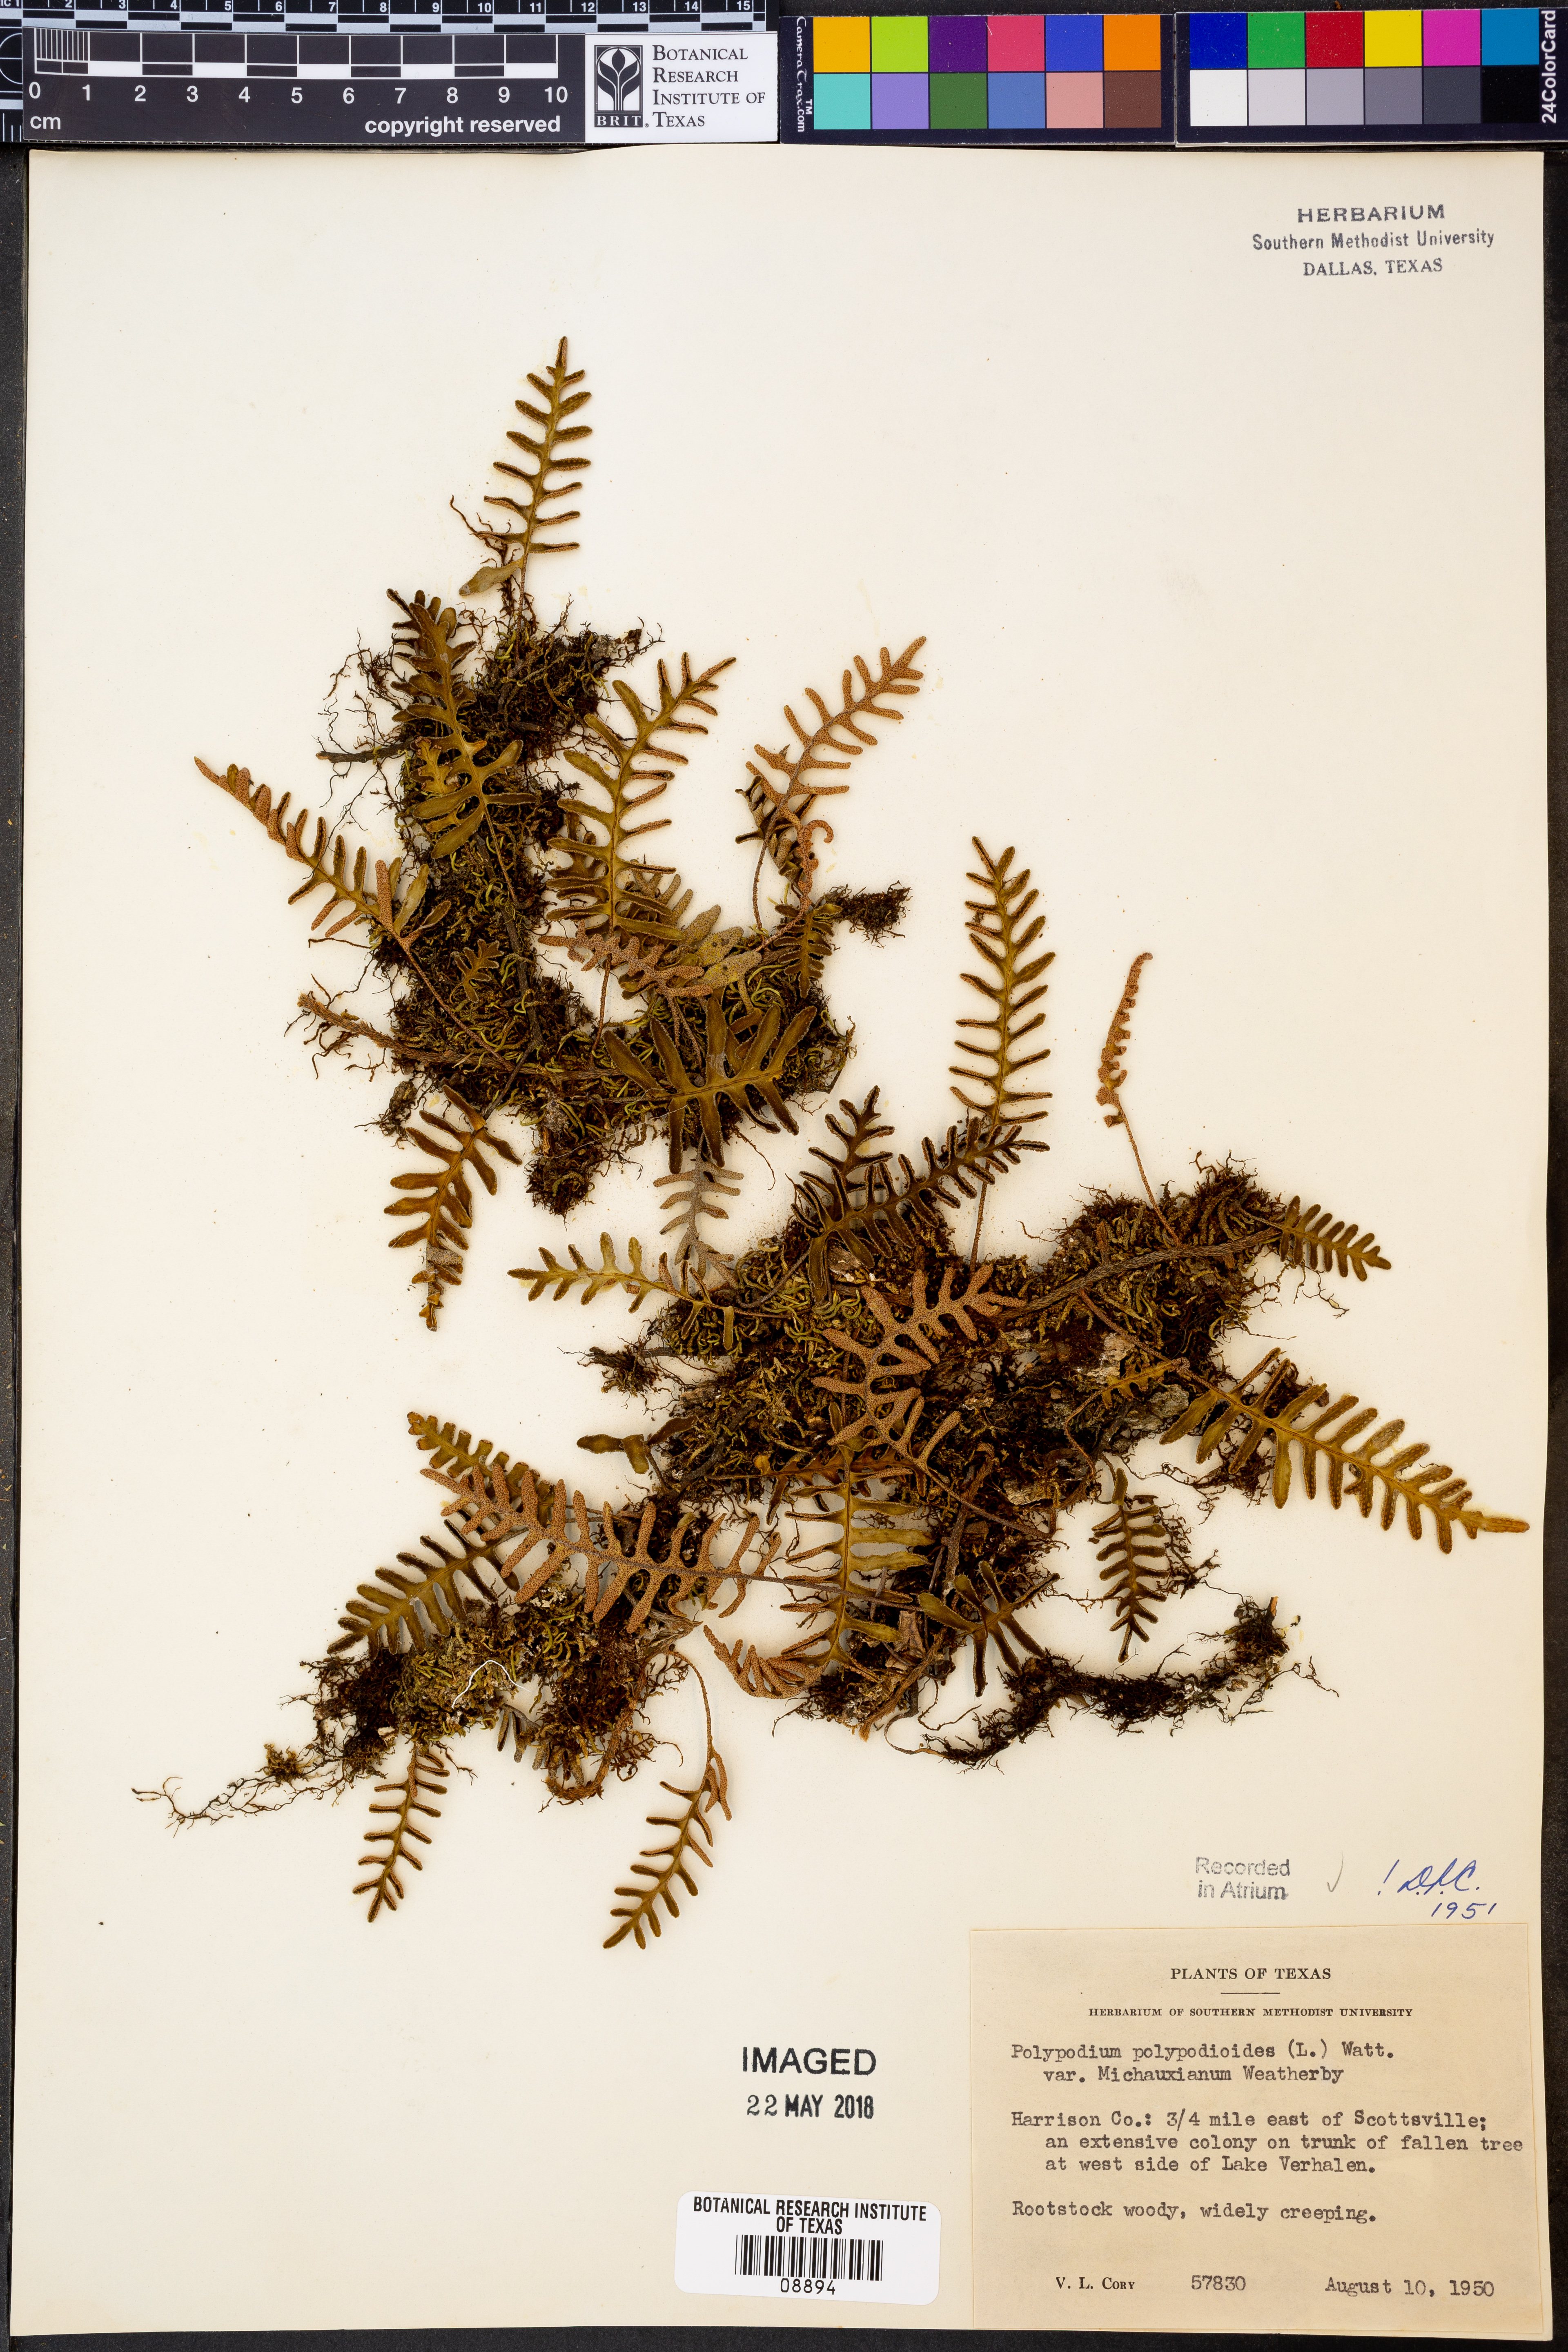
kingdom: Plantae
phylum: Tracheophyta
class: Polypodiopsida
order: Polypodiales
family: Polypodiaceae
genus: Pleopeltis
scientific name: Pleopeltis michauxiana
